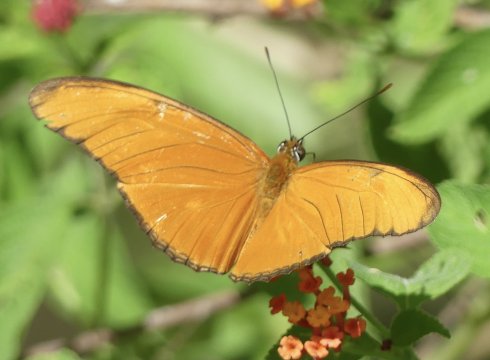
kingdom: Animalia
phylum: Arthropoda
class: Insecta
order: Lepidoptera
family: Nymphalidae
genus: Dryas
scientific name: Dryas iulia
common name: Julia
